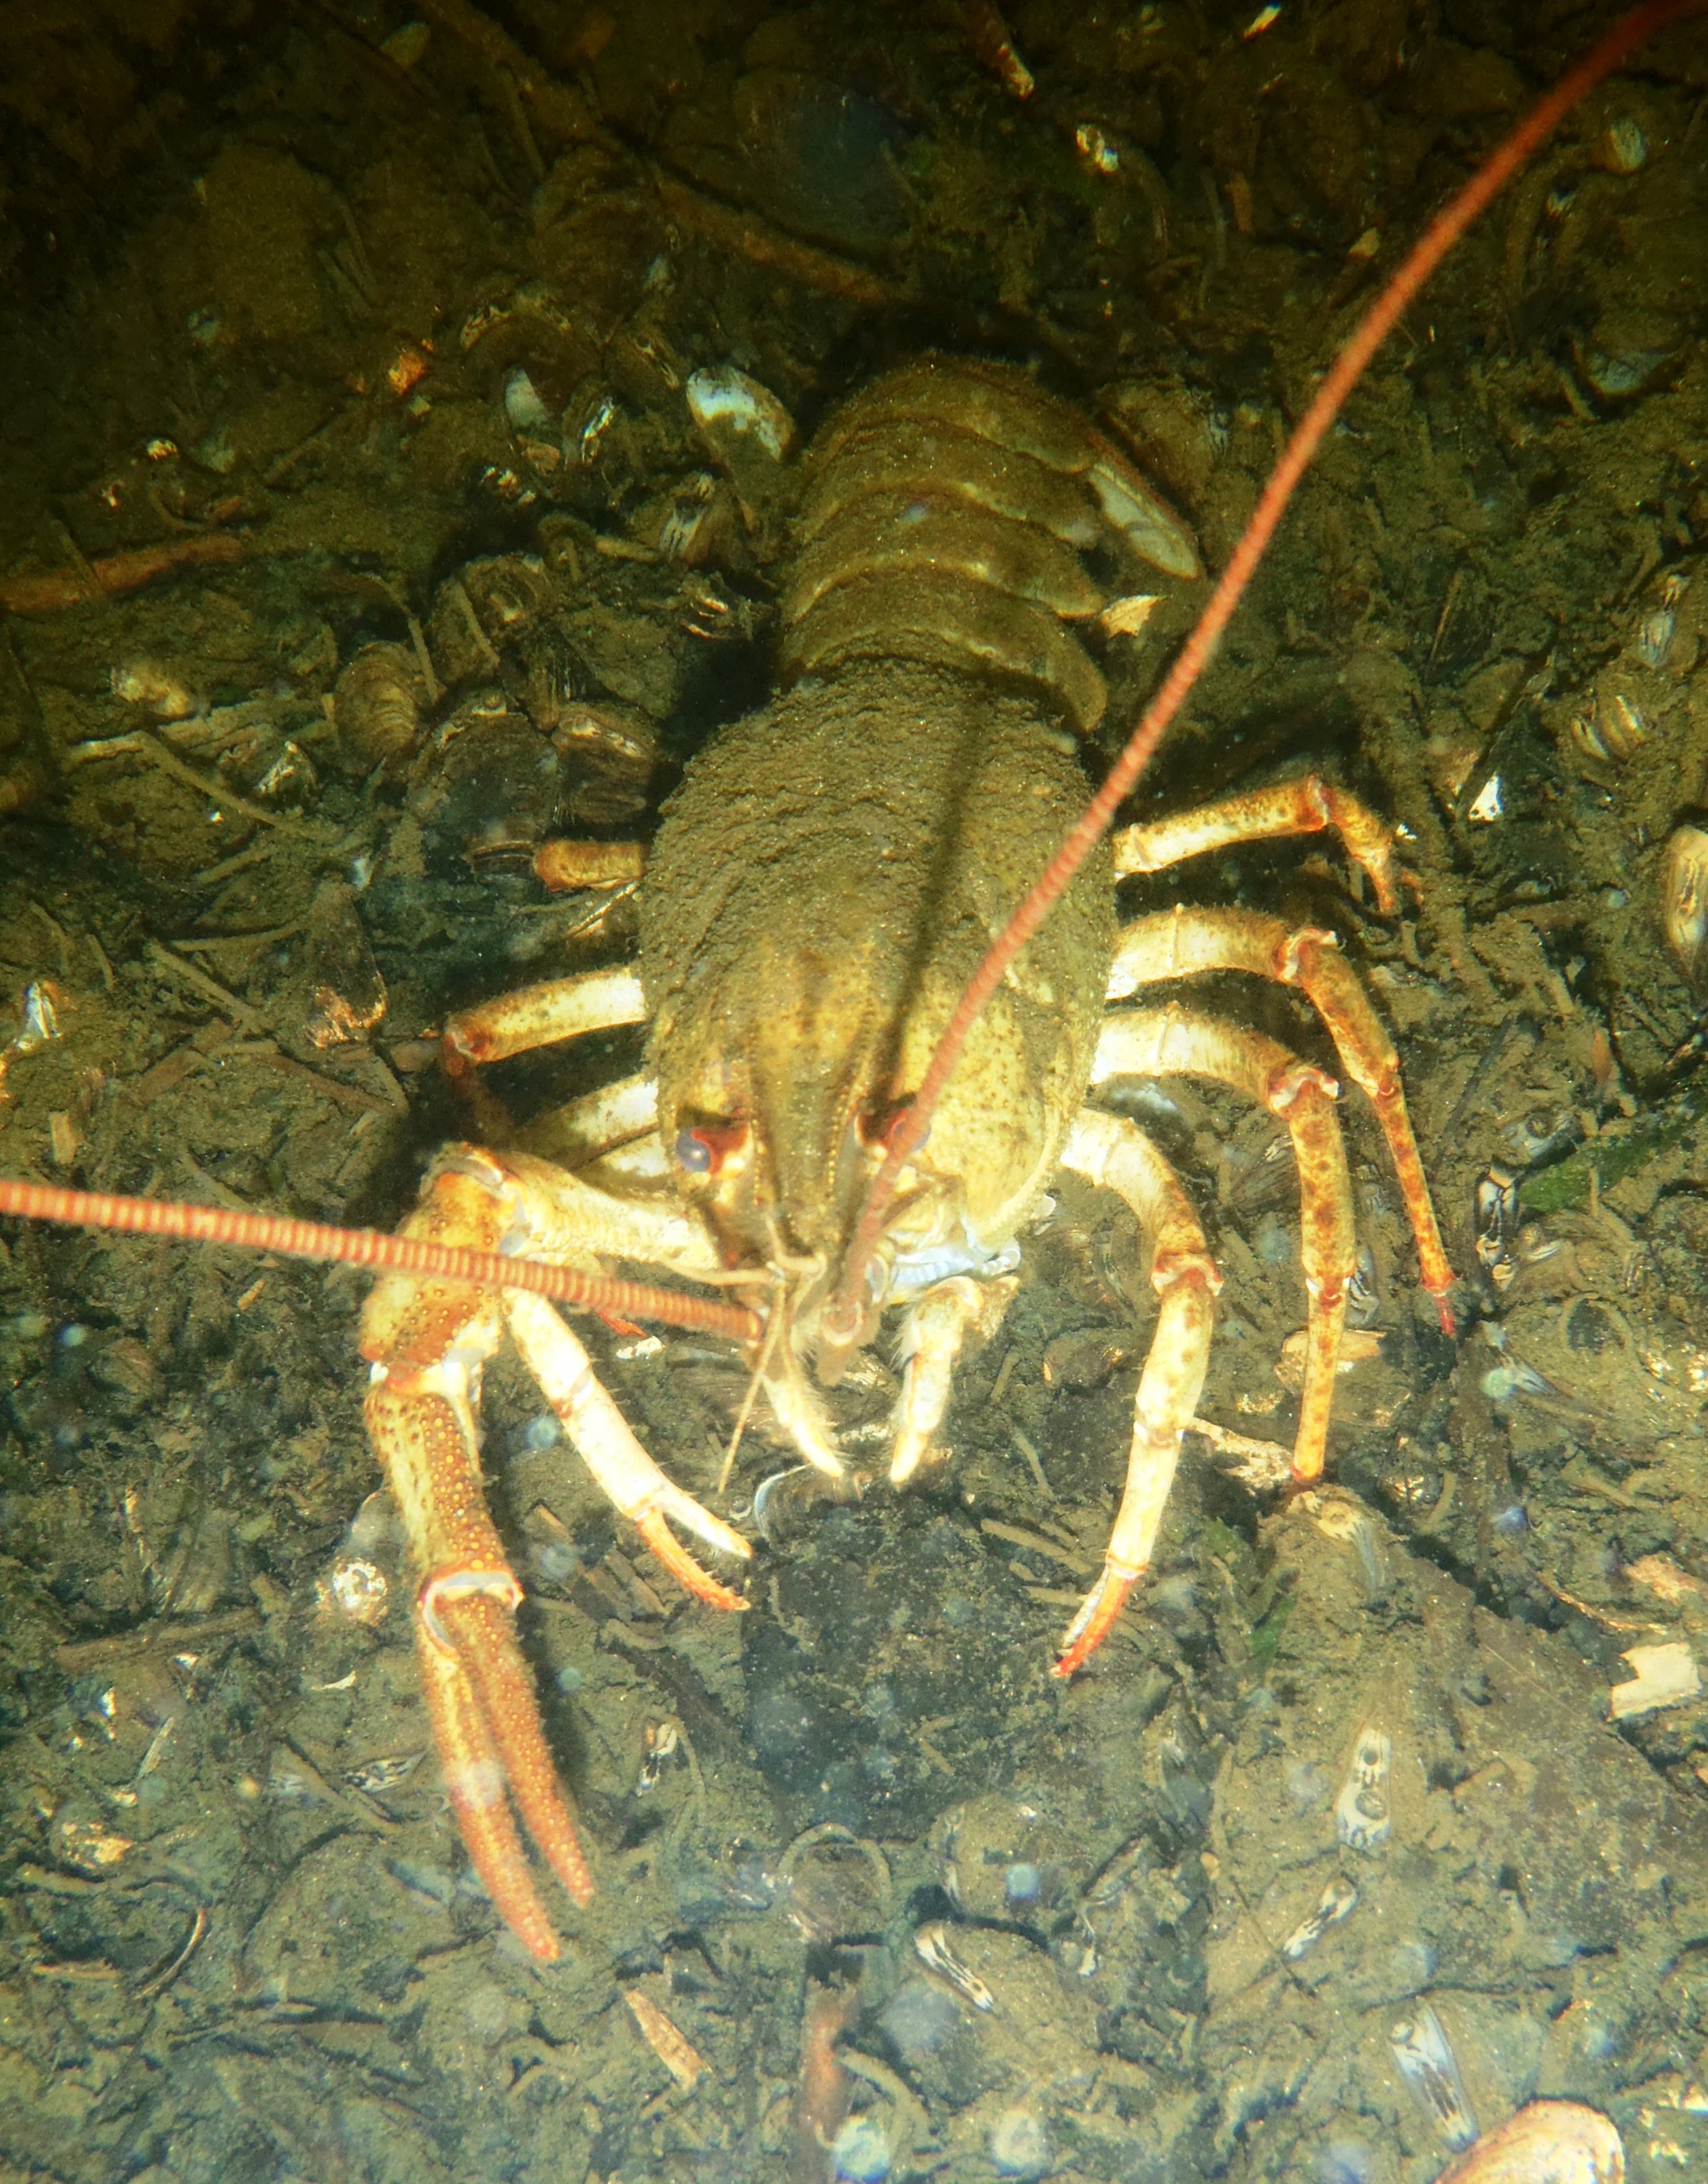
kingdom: Animalia
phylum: Arthropoda
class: Malacostraca
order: Decapoda
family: Astacidae
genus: Pontastacus
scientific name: Pontastacus leptodactylus
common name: Galizisk sumpkrebs
